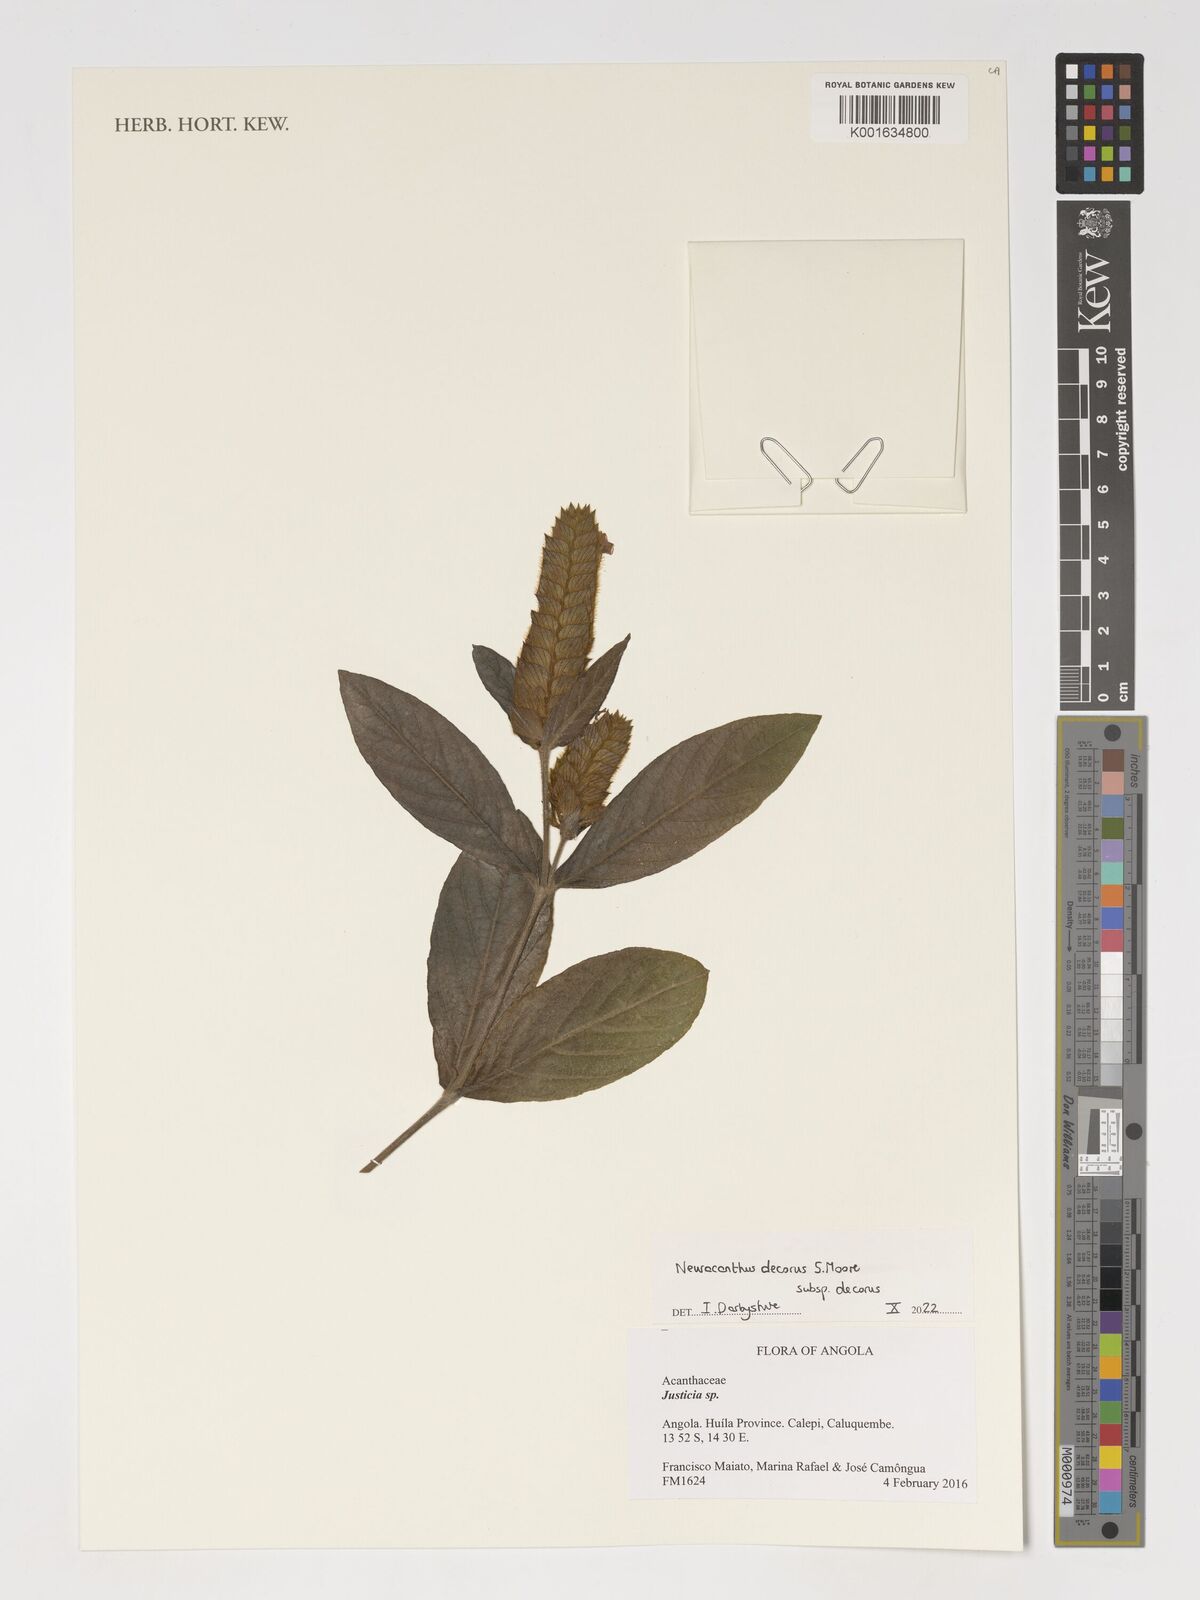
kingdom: Plantae
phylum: Tracheophyta
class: Magnoliopsida
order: Lamiales
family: Acanthaceae
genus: Neuracanthus
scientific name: Neuracanthus decorus
